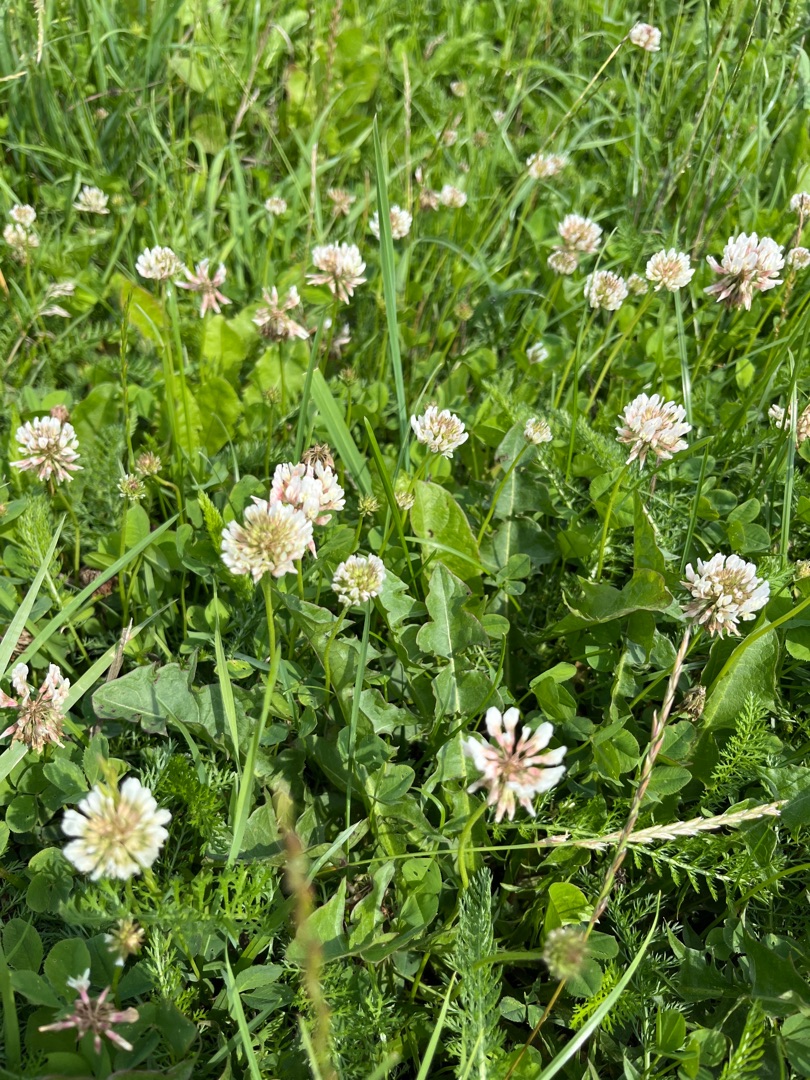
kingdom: Plantae
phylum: Tracheophyta
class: Magnoliopsida
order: Fabales
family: Fabaceae
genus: Trifolium
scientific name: Trifolium repens
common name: Hvid-kløver
